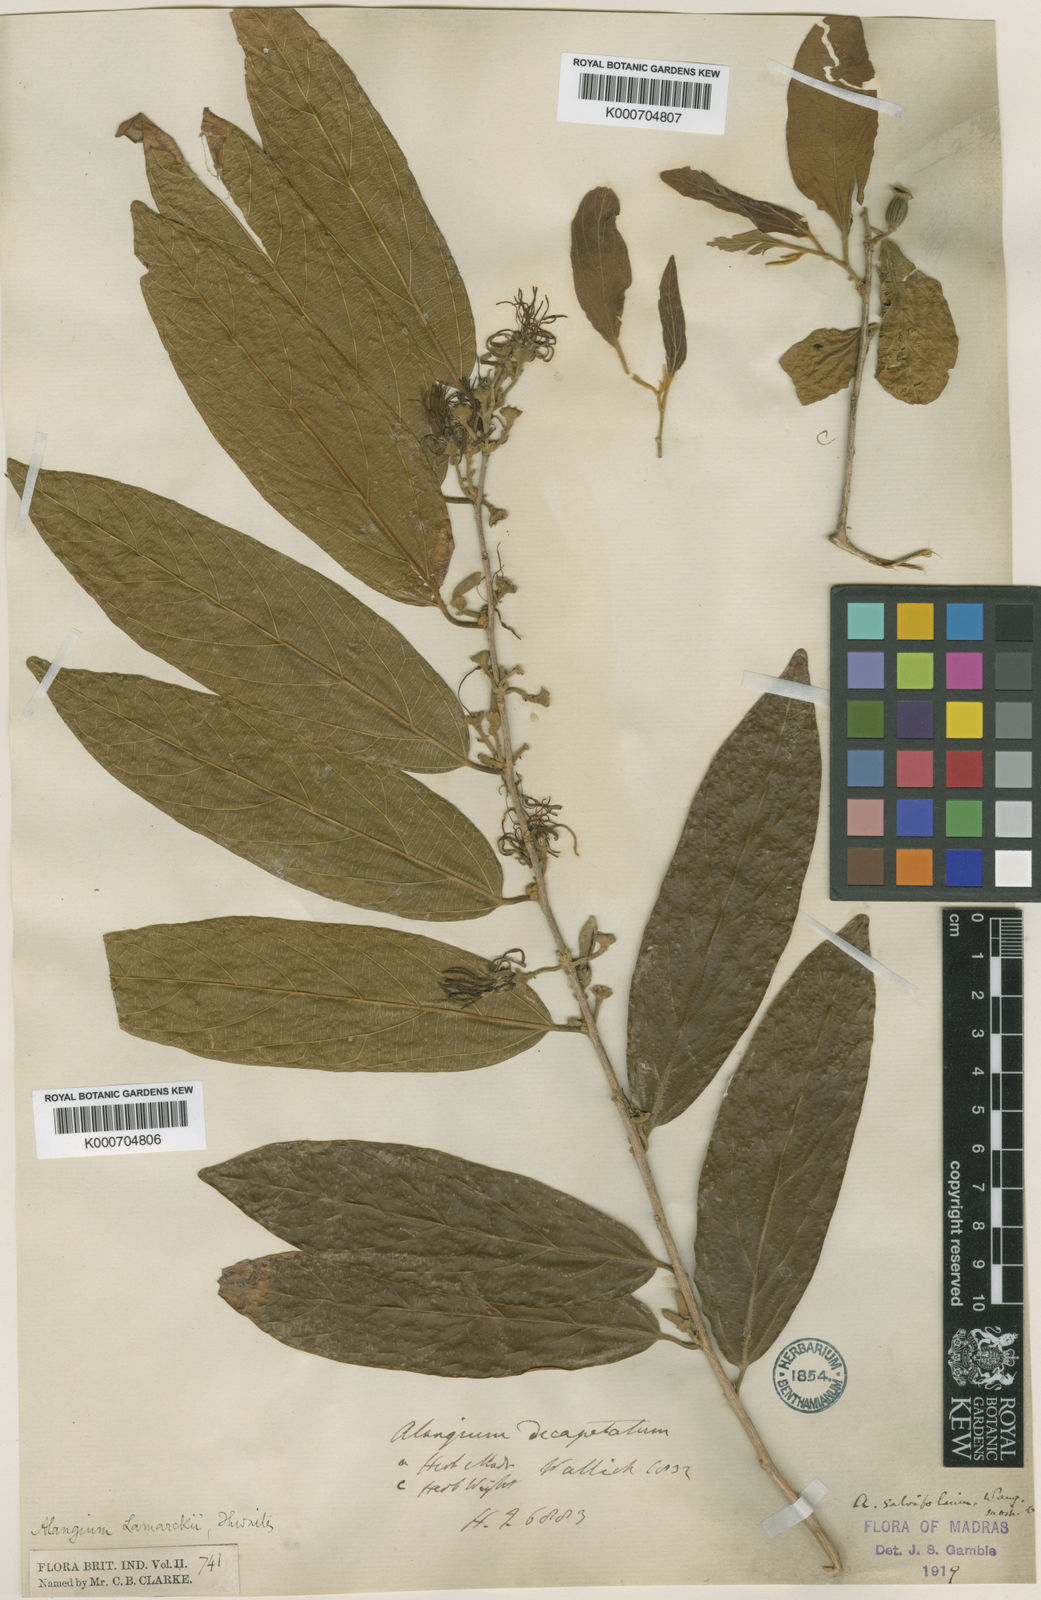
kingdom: Plantae
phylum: Tracheophyta
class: Magnoliopsida
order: Cornales
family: Cornaceae
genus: Alangium
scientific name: Alangium salviifolium
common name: Sage-leaf alangium
